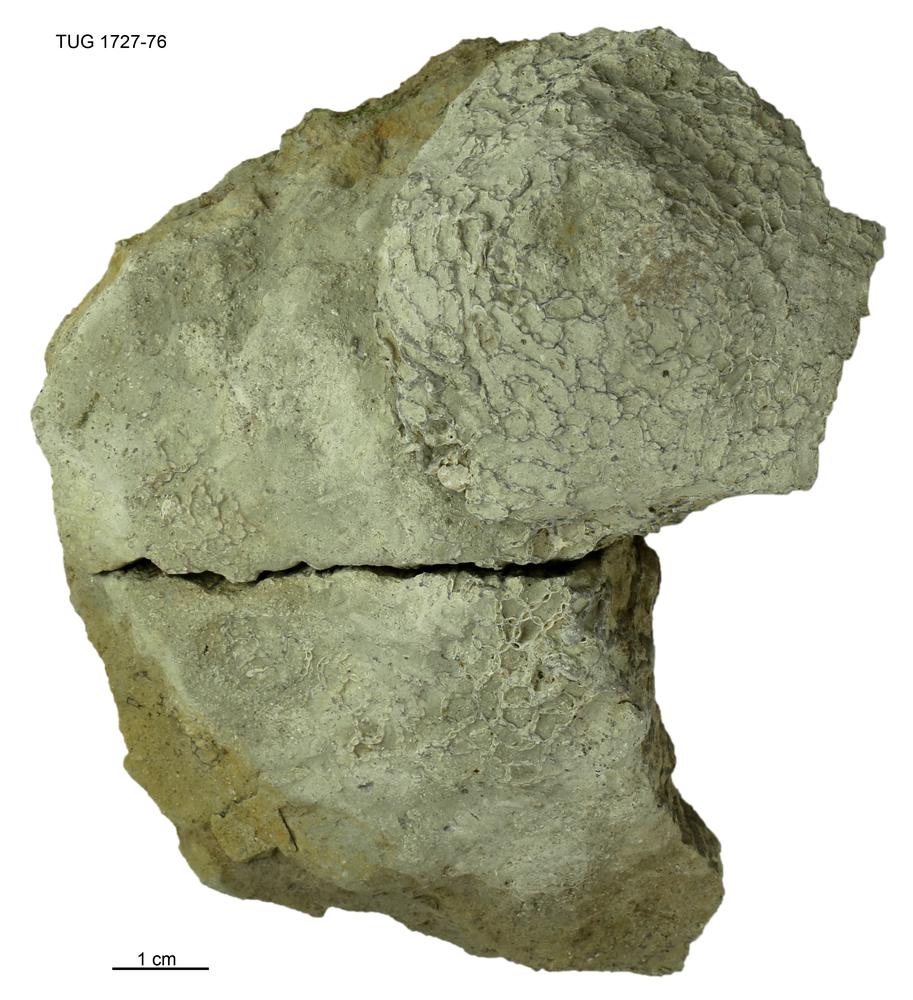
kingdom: Animalia
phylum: Cnidaria
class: Anthozoa
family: Cateniporidae
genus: Catenipora
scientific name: Catenipora
